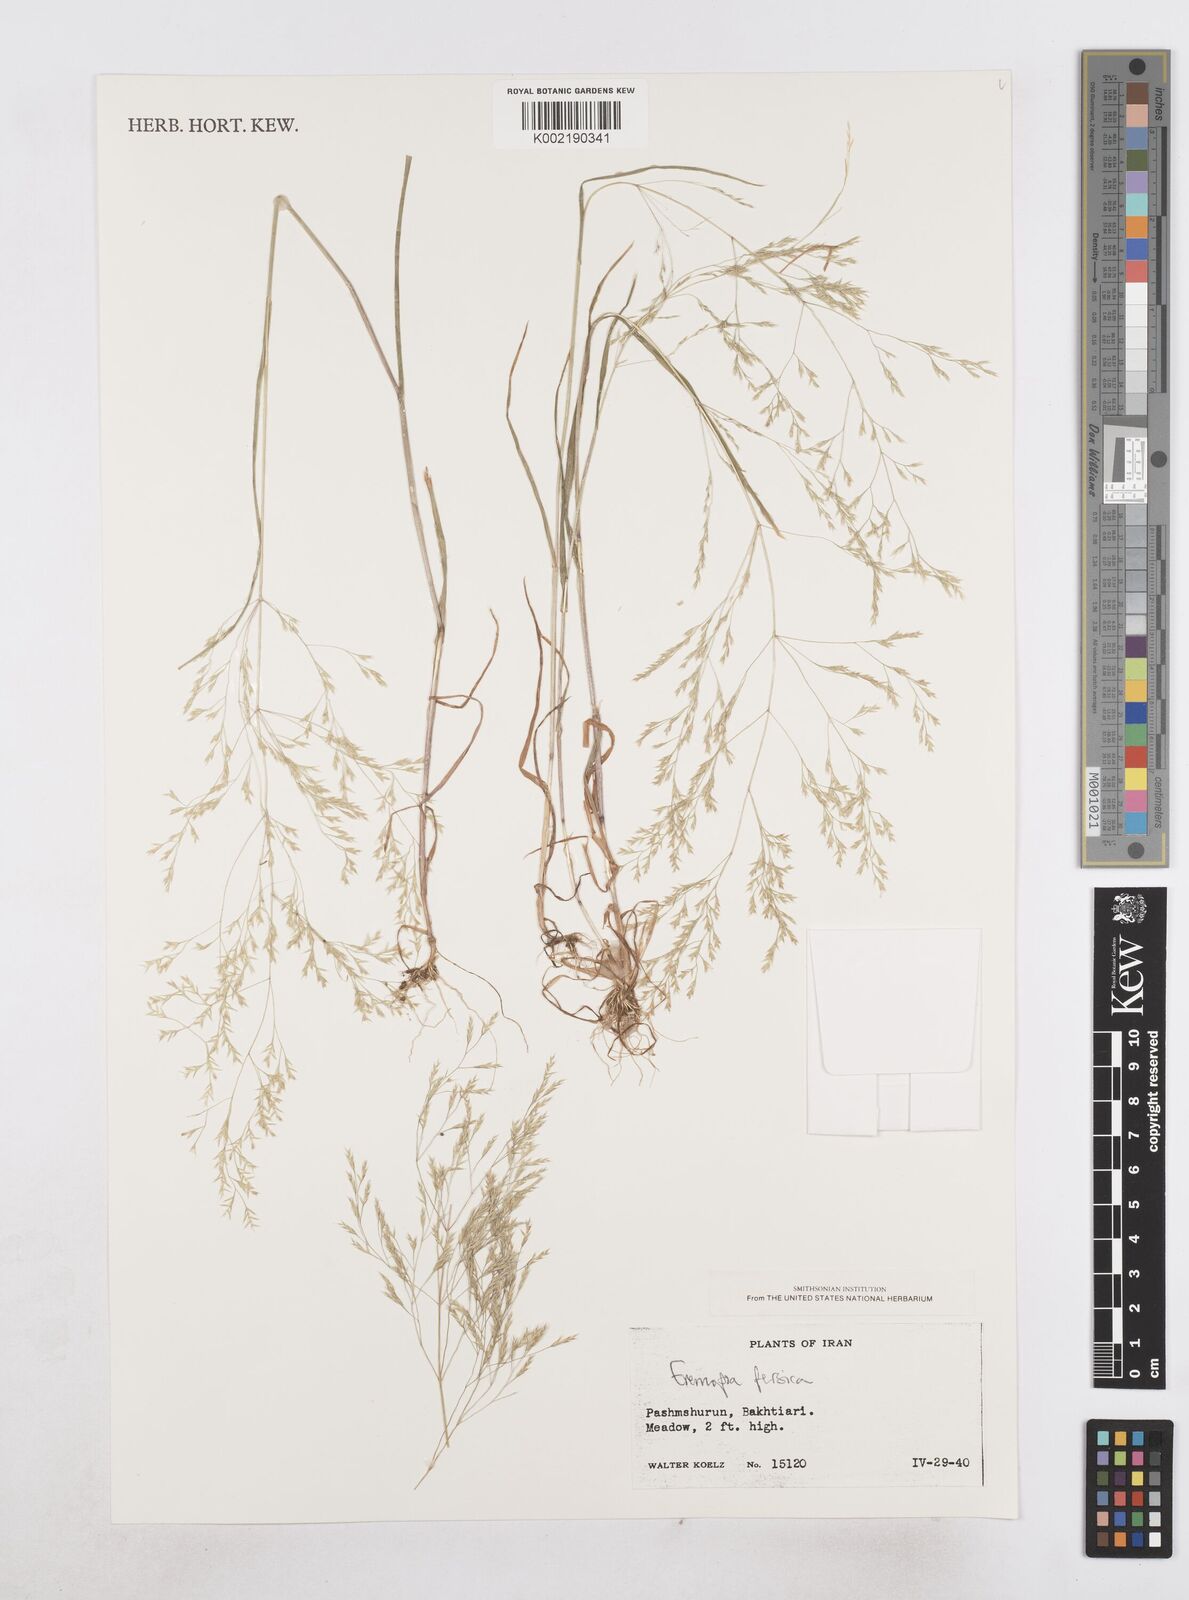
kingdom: Plantae
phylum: Tracheophyta
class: Liliopsida
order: Poales
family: Poaceae
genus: Poa
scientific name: Poa persica
